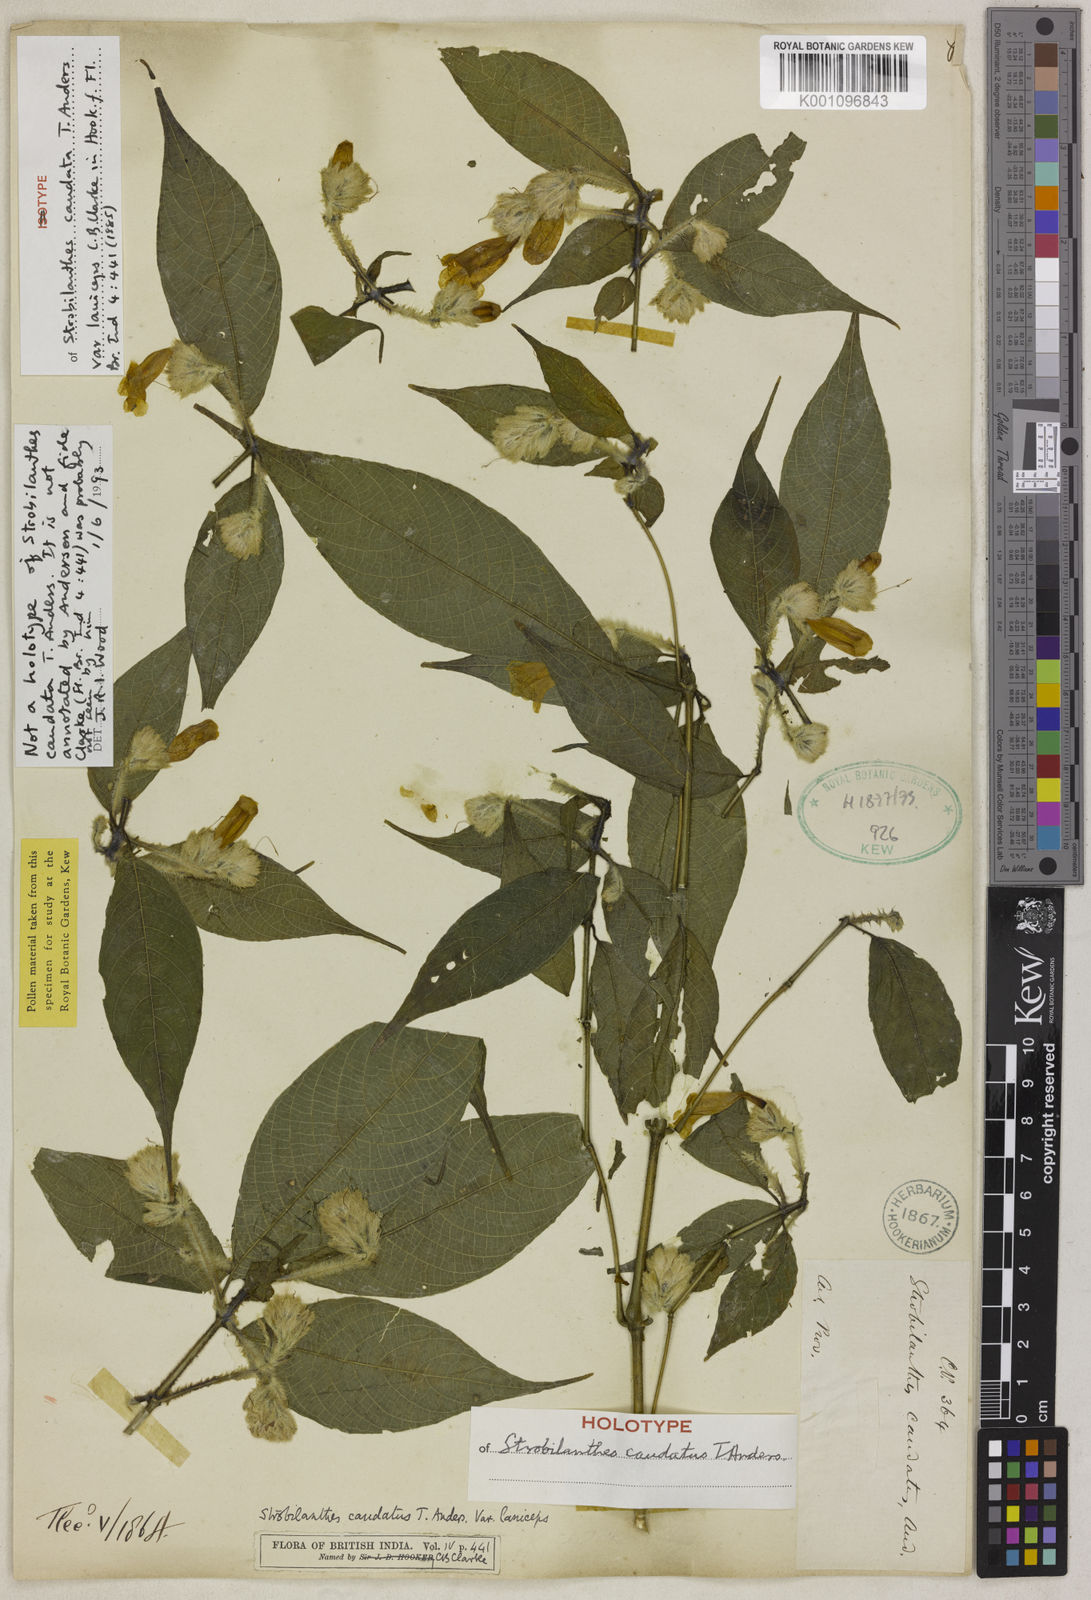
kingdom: Plantae
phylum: Tracheophyta
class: Magnoliopsida
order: Lamiales
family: Acanthaceae
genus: Strobilanthes
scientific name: Strobilanthes caudata
